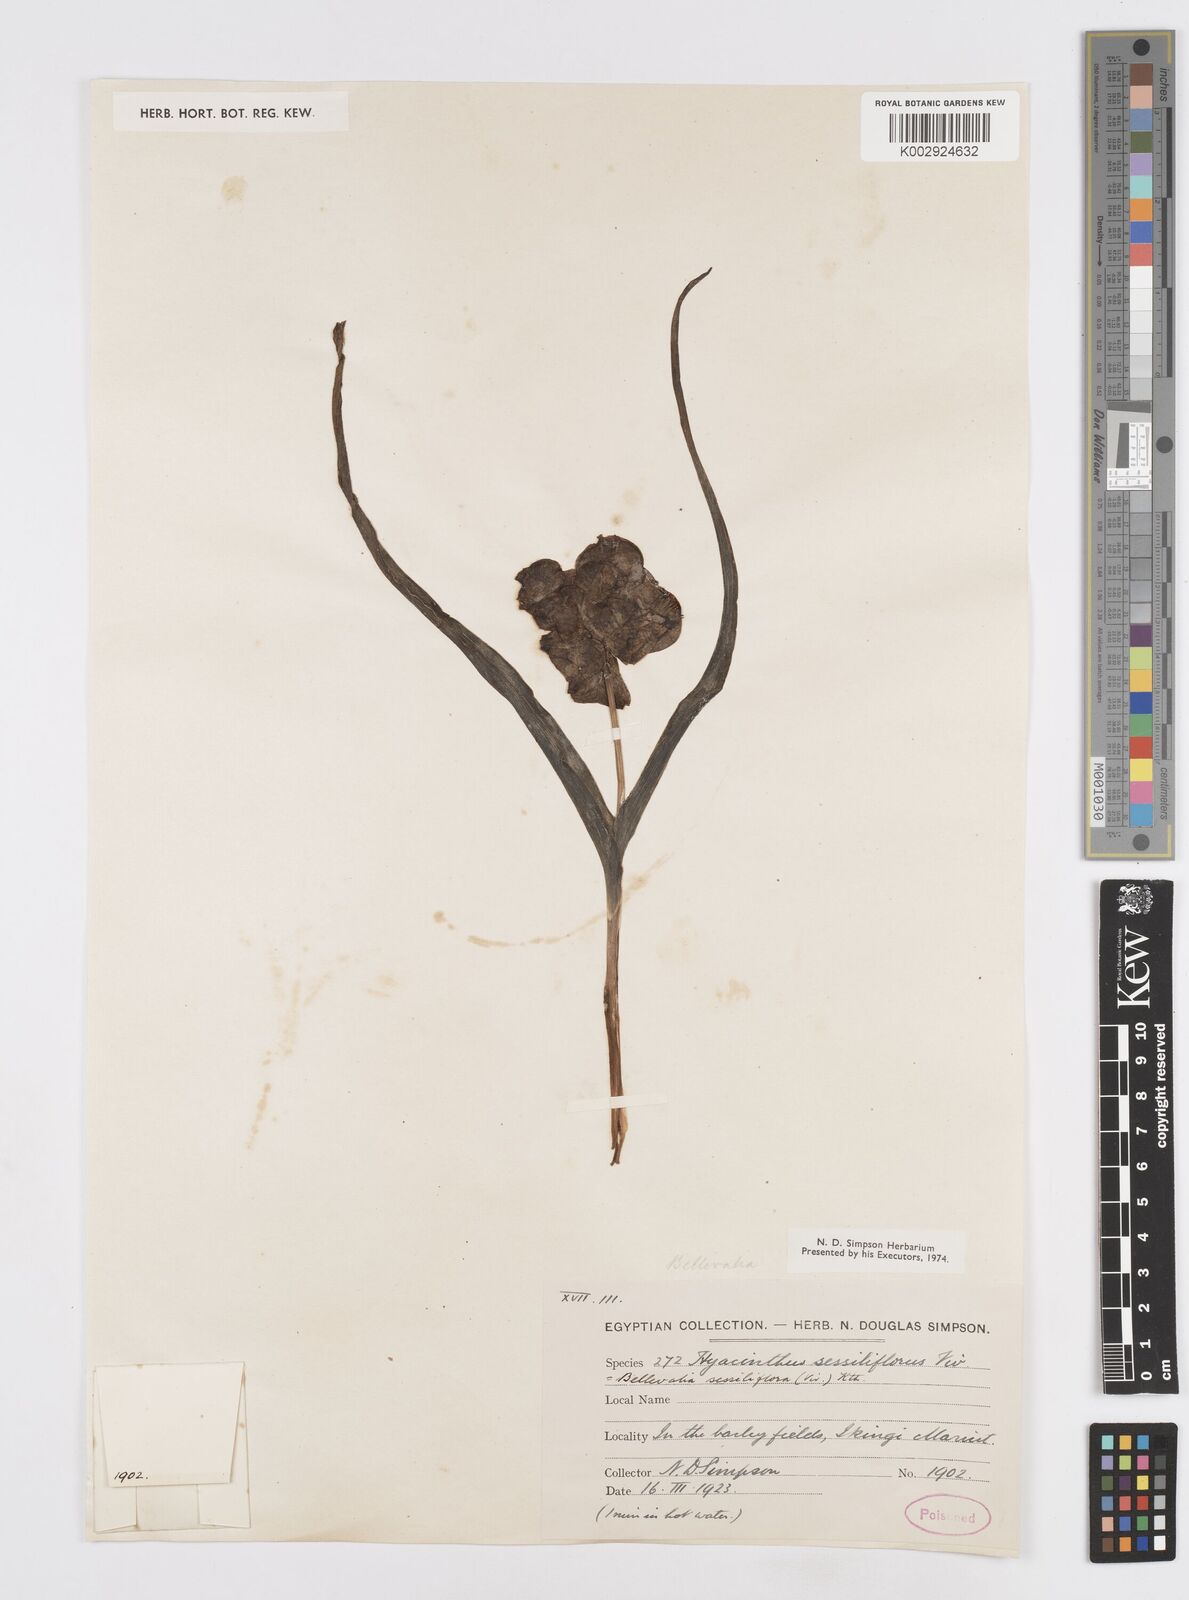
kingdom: Plantae
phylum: Tracheophyta
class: Liliopsida
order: Asparagales
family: Asparagaceae
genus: Bellevalia
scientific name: Bellevalia sessiliflora
